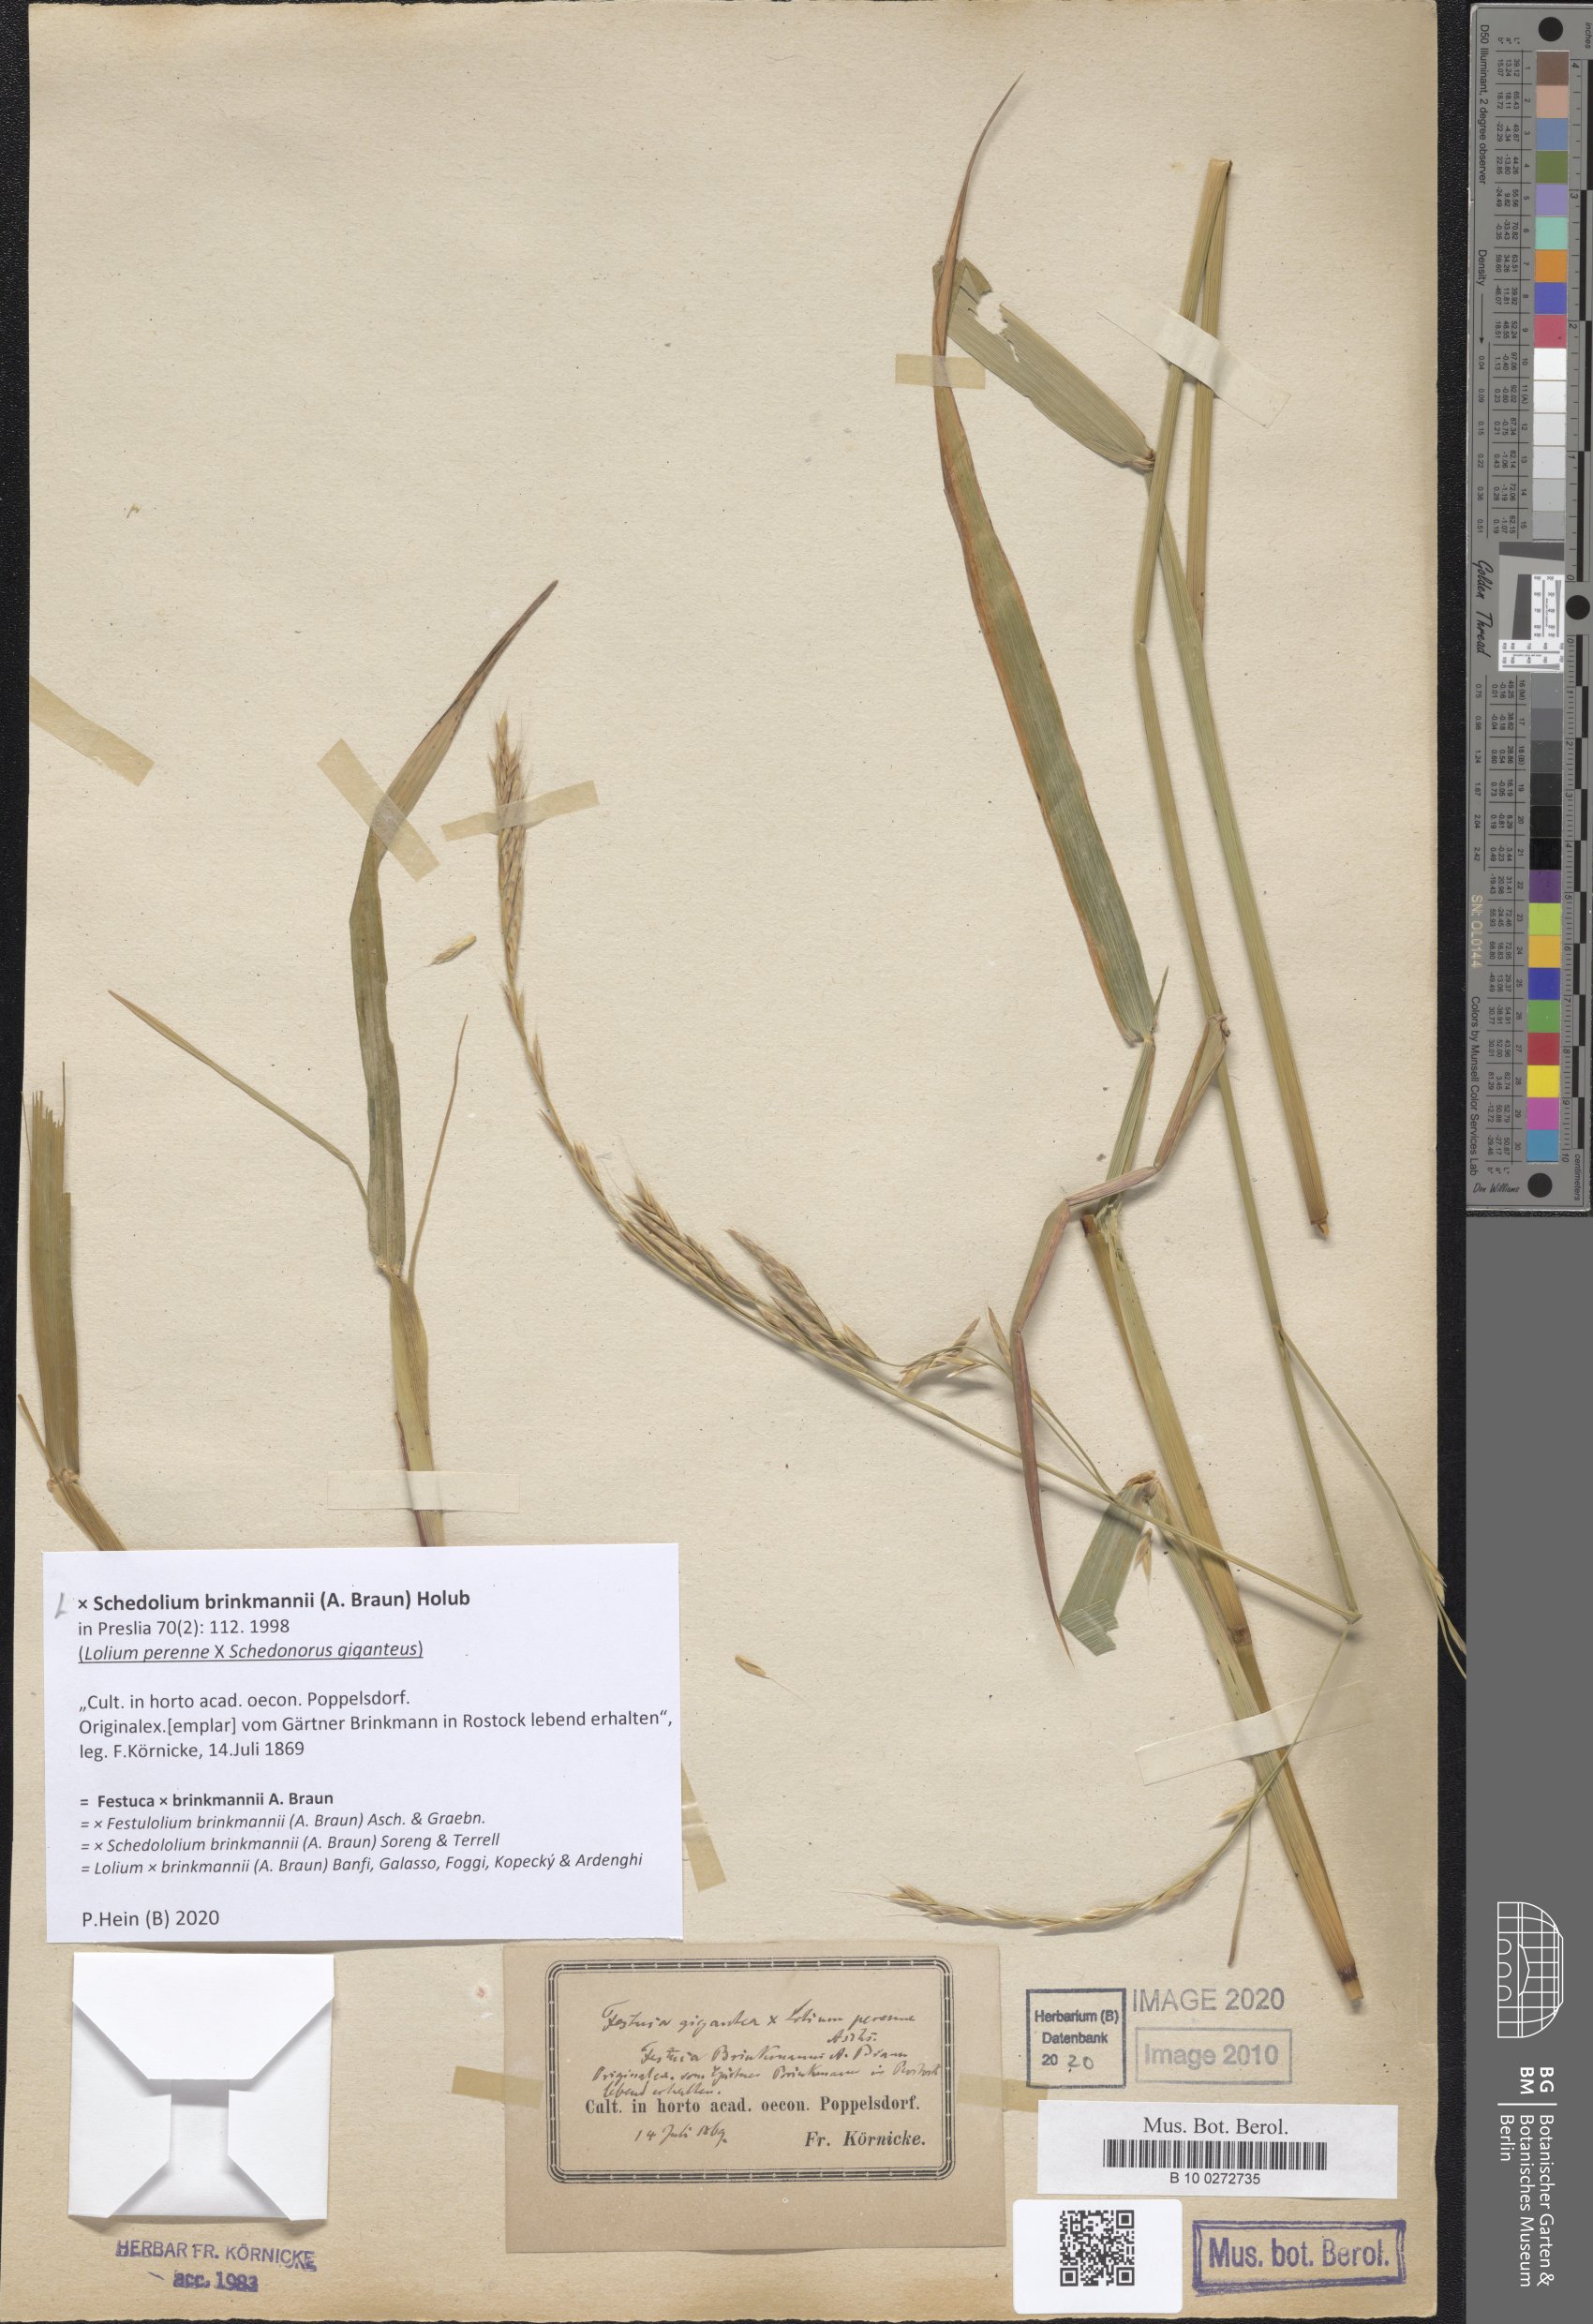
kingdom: Plantae
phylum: Tracheophyta
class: Liliopsida
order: Poales
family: Poaceae
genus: Lolium
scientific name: Lolium brinkmannii
